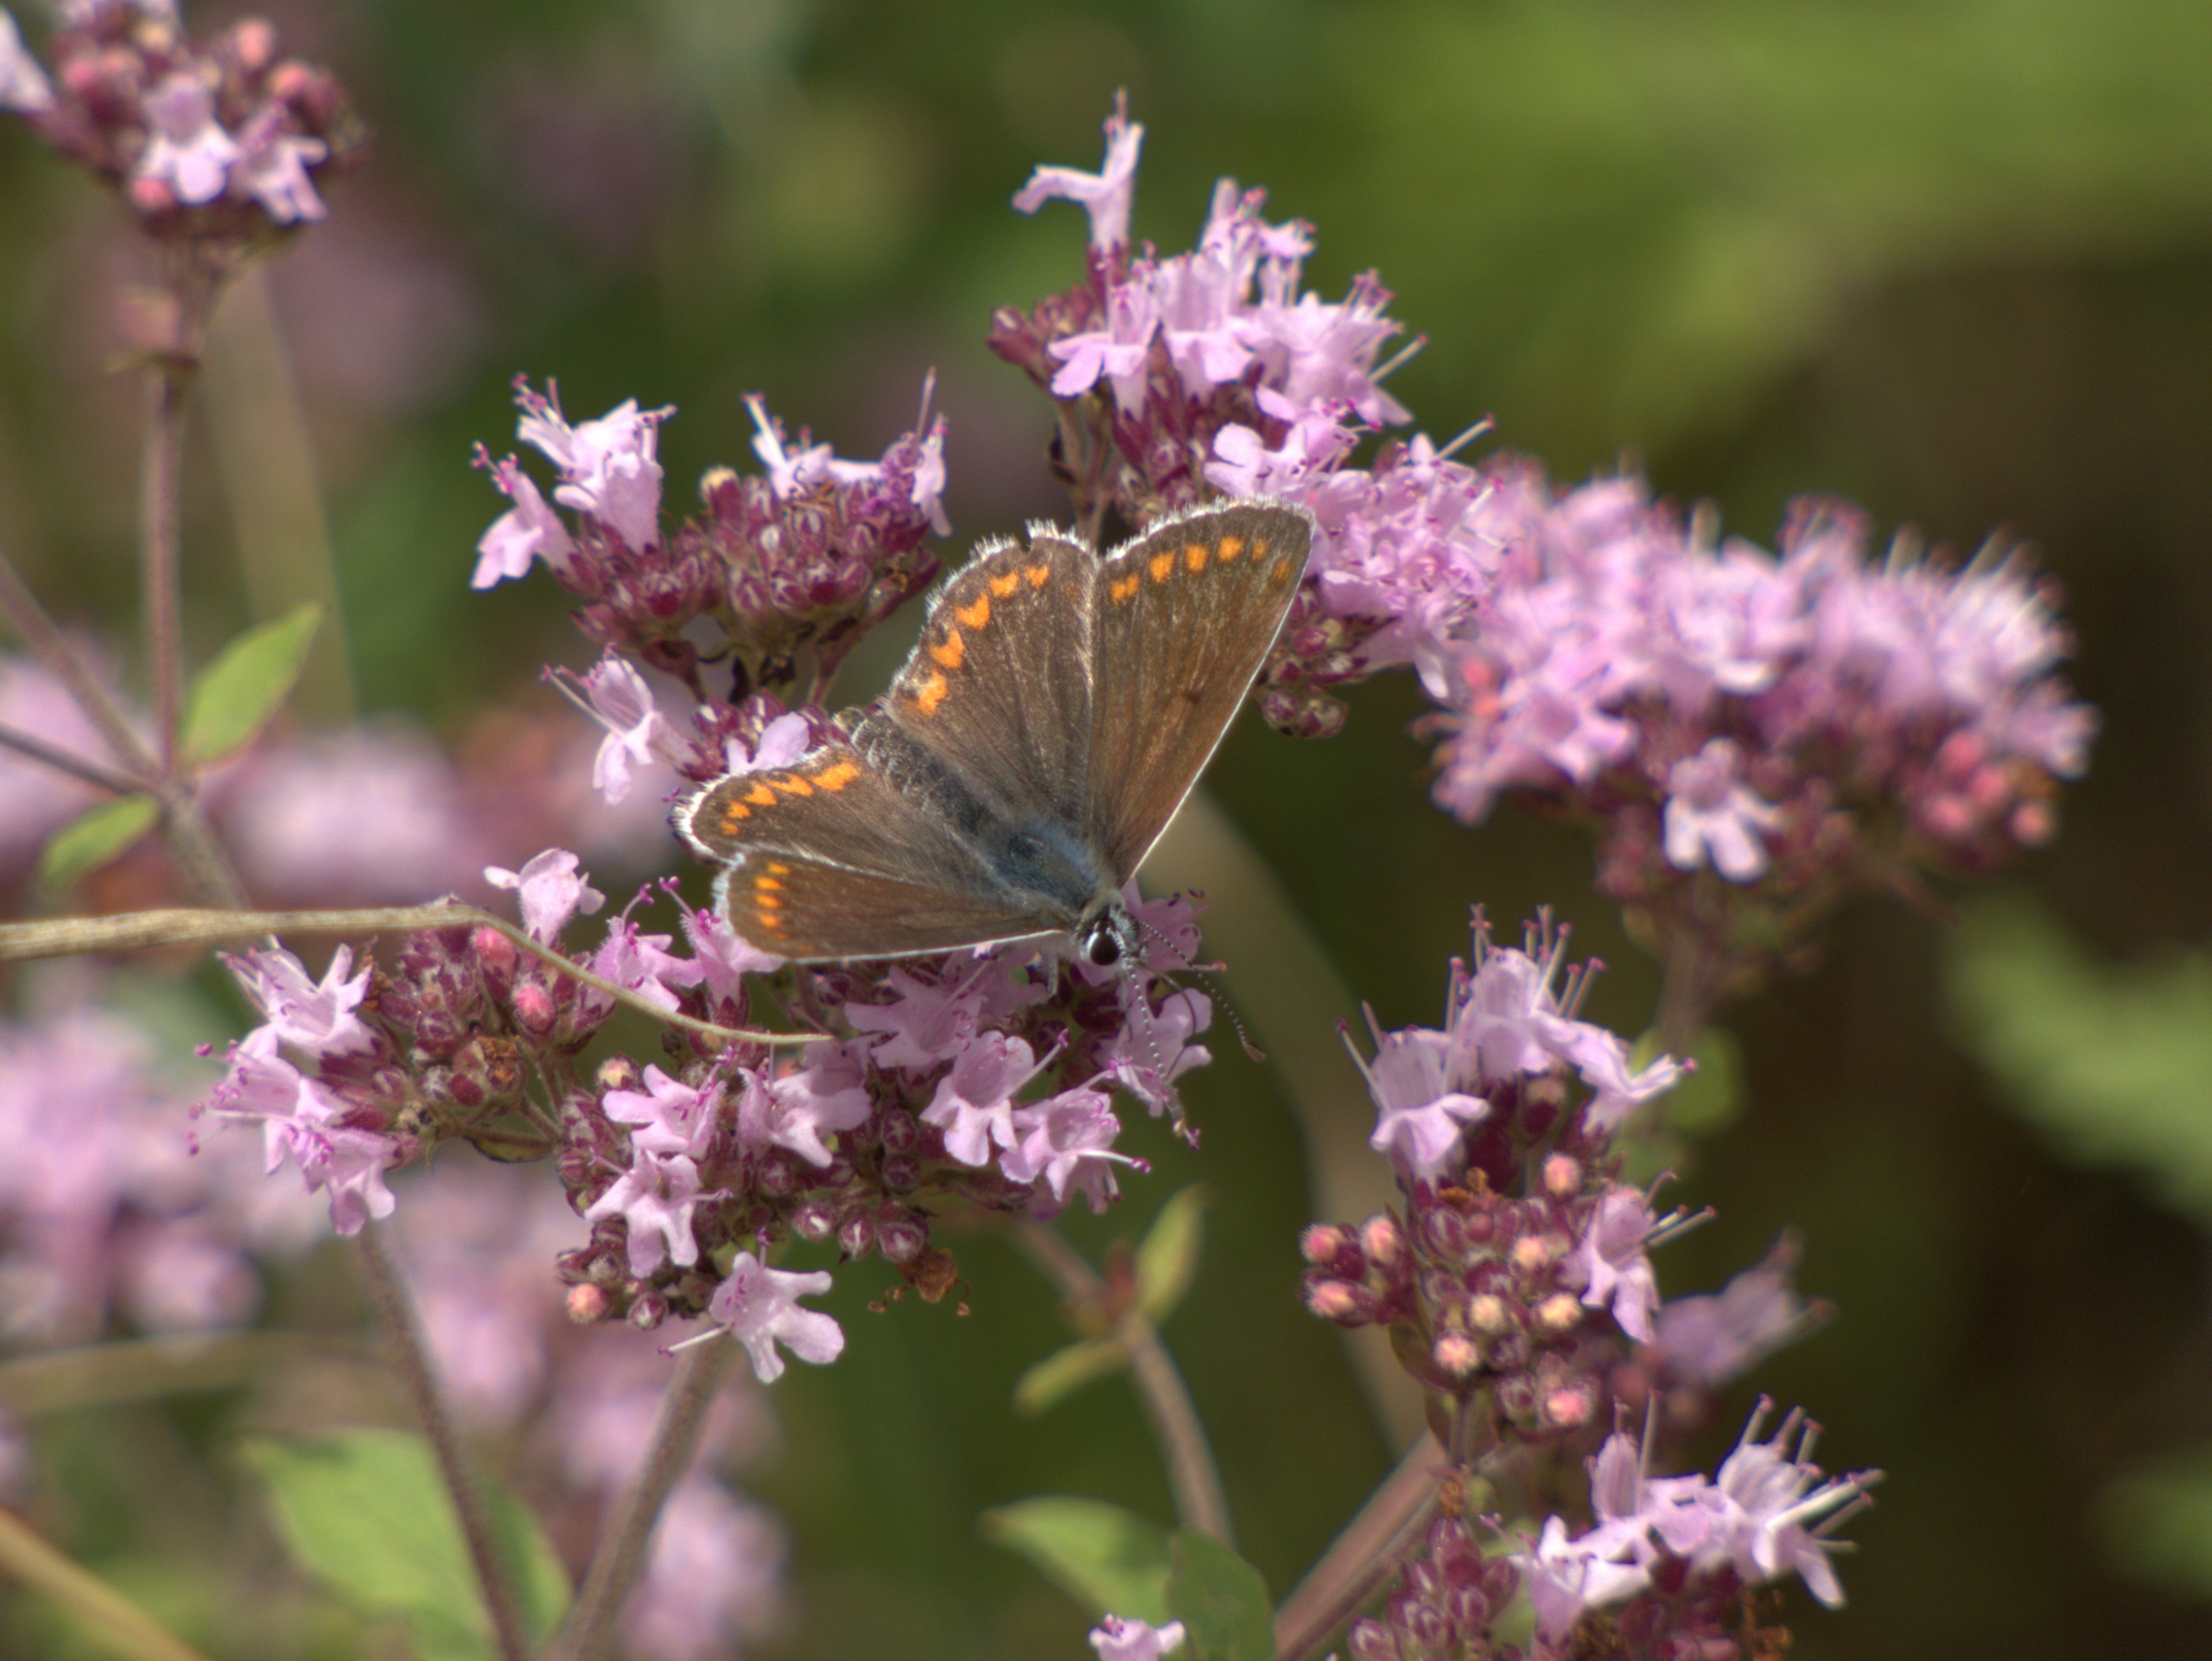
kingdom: Animalia
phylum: Arthropoda
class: Insecta
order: Lepidoptera
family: Lycaenidae
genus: Aricia
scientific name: Aricia agestis
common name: Rødplettet blåfugl
